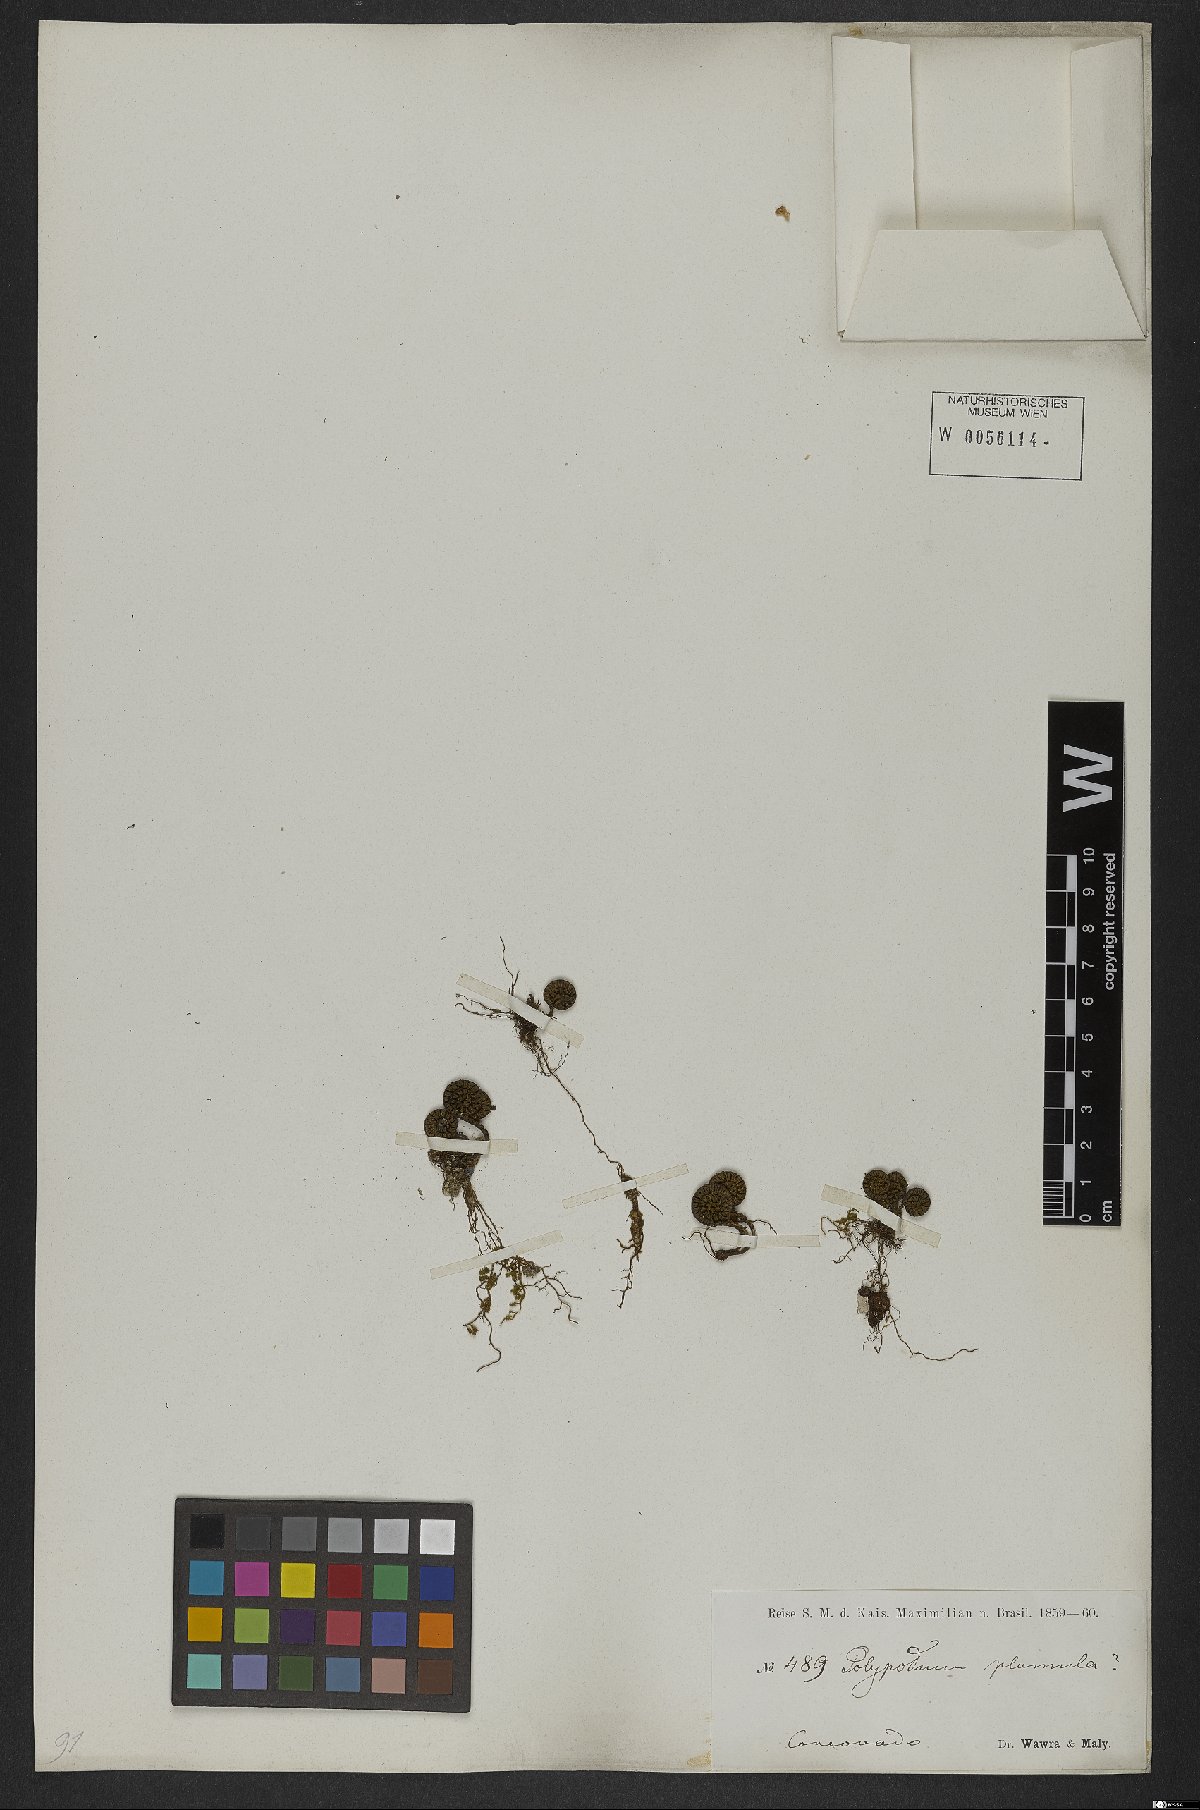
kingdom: Plantae
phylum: Tracheophyta
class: Polypodiopsida
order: Polypodiales
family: Polypodiaceae
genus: Pecluma
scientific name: Pecluma plumula
